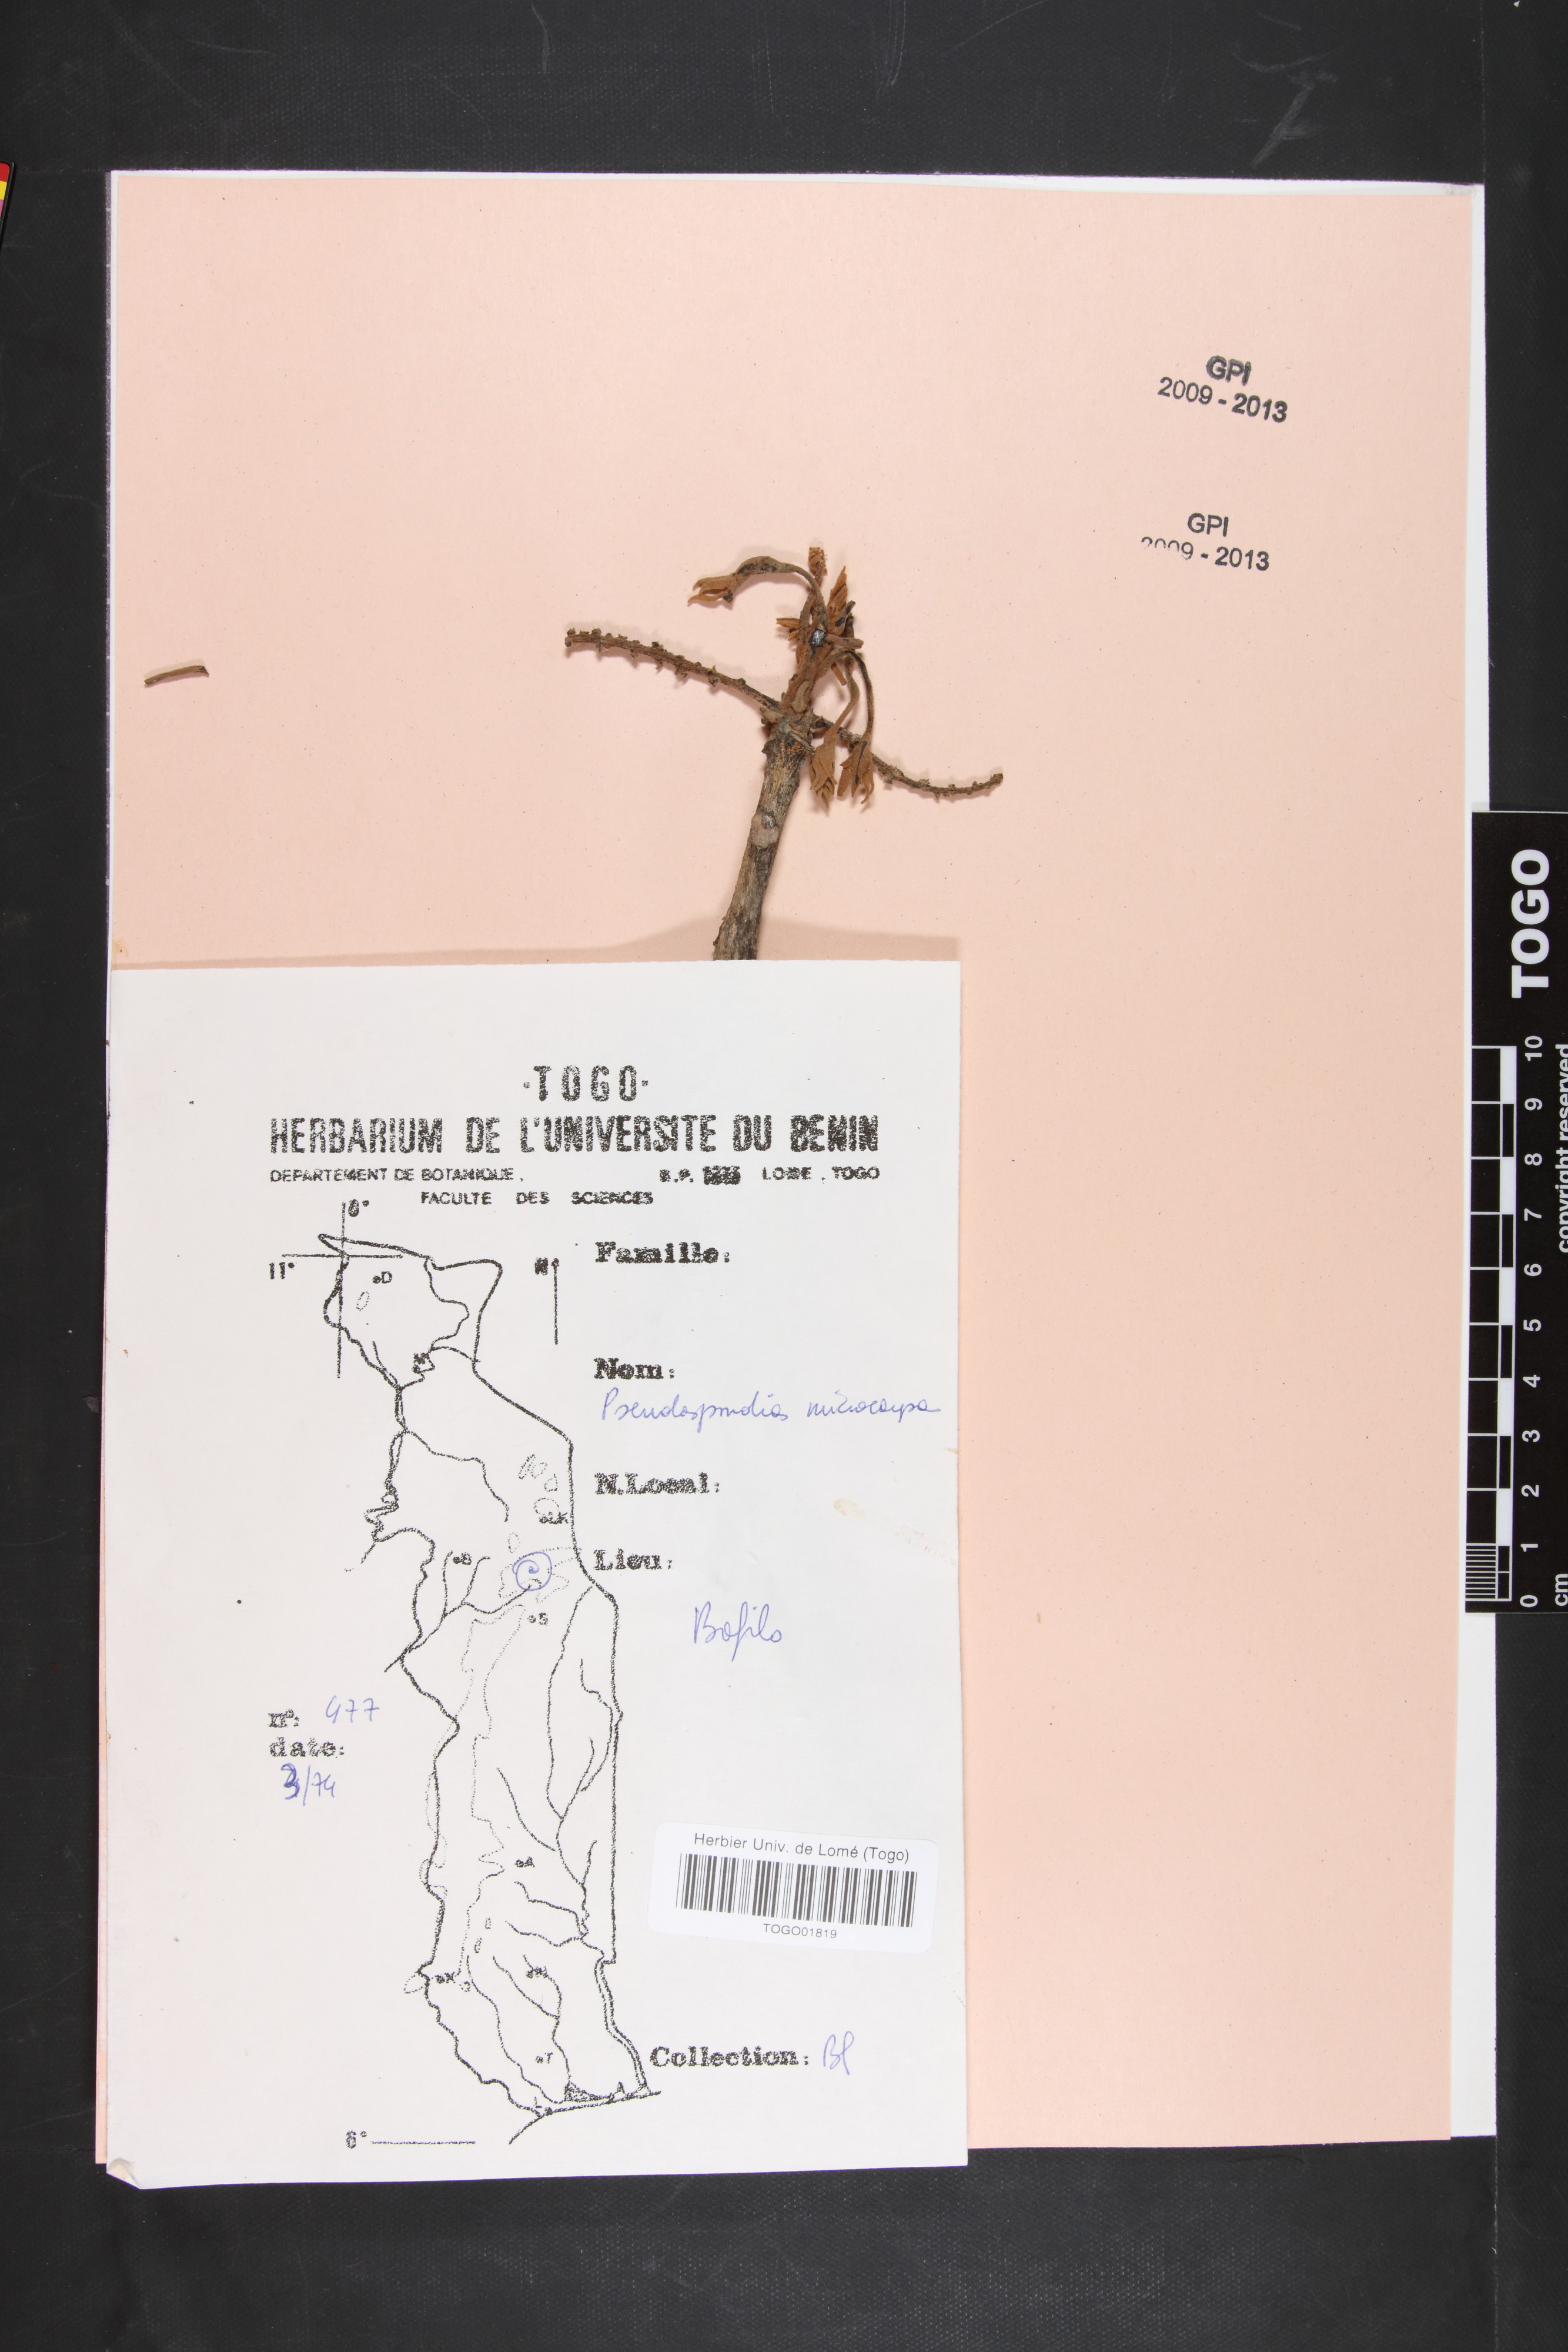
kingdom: Plantae
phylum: Tracheophyta
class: Magnoliopsida
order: Sapindales
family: Anacardiaceae
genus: Pseudospondias
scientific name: Pseudospondias microcarpa
